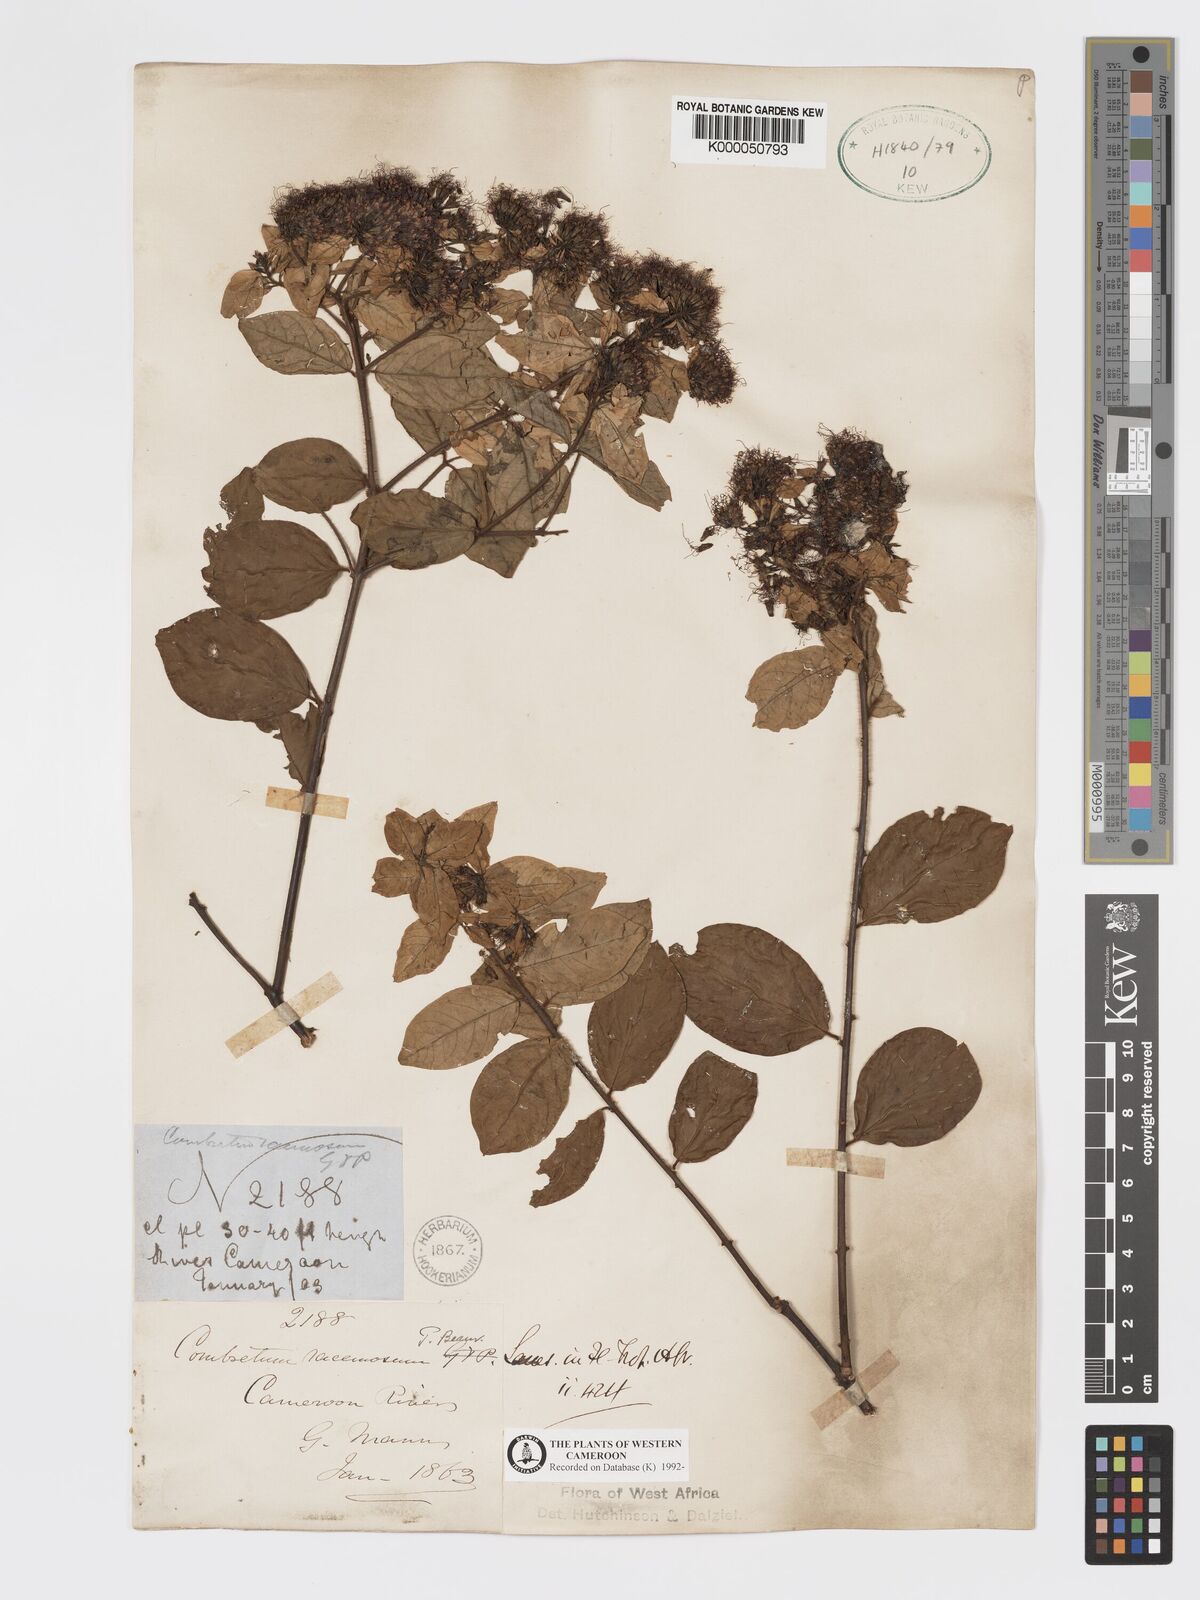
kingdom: Plantae
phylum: Tracheophyta
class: Magnoliopsida
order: Myrtales
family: Combretaceae
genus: Combretum
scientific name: Combretum racemosum
